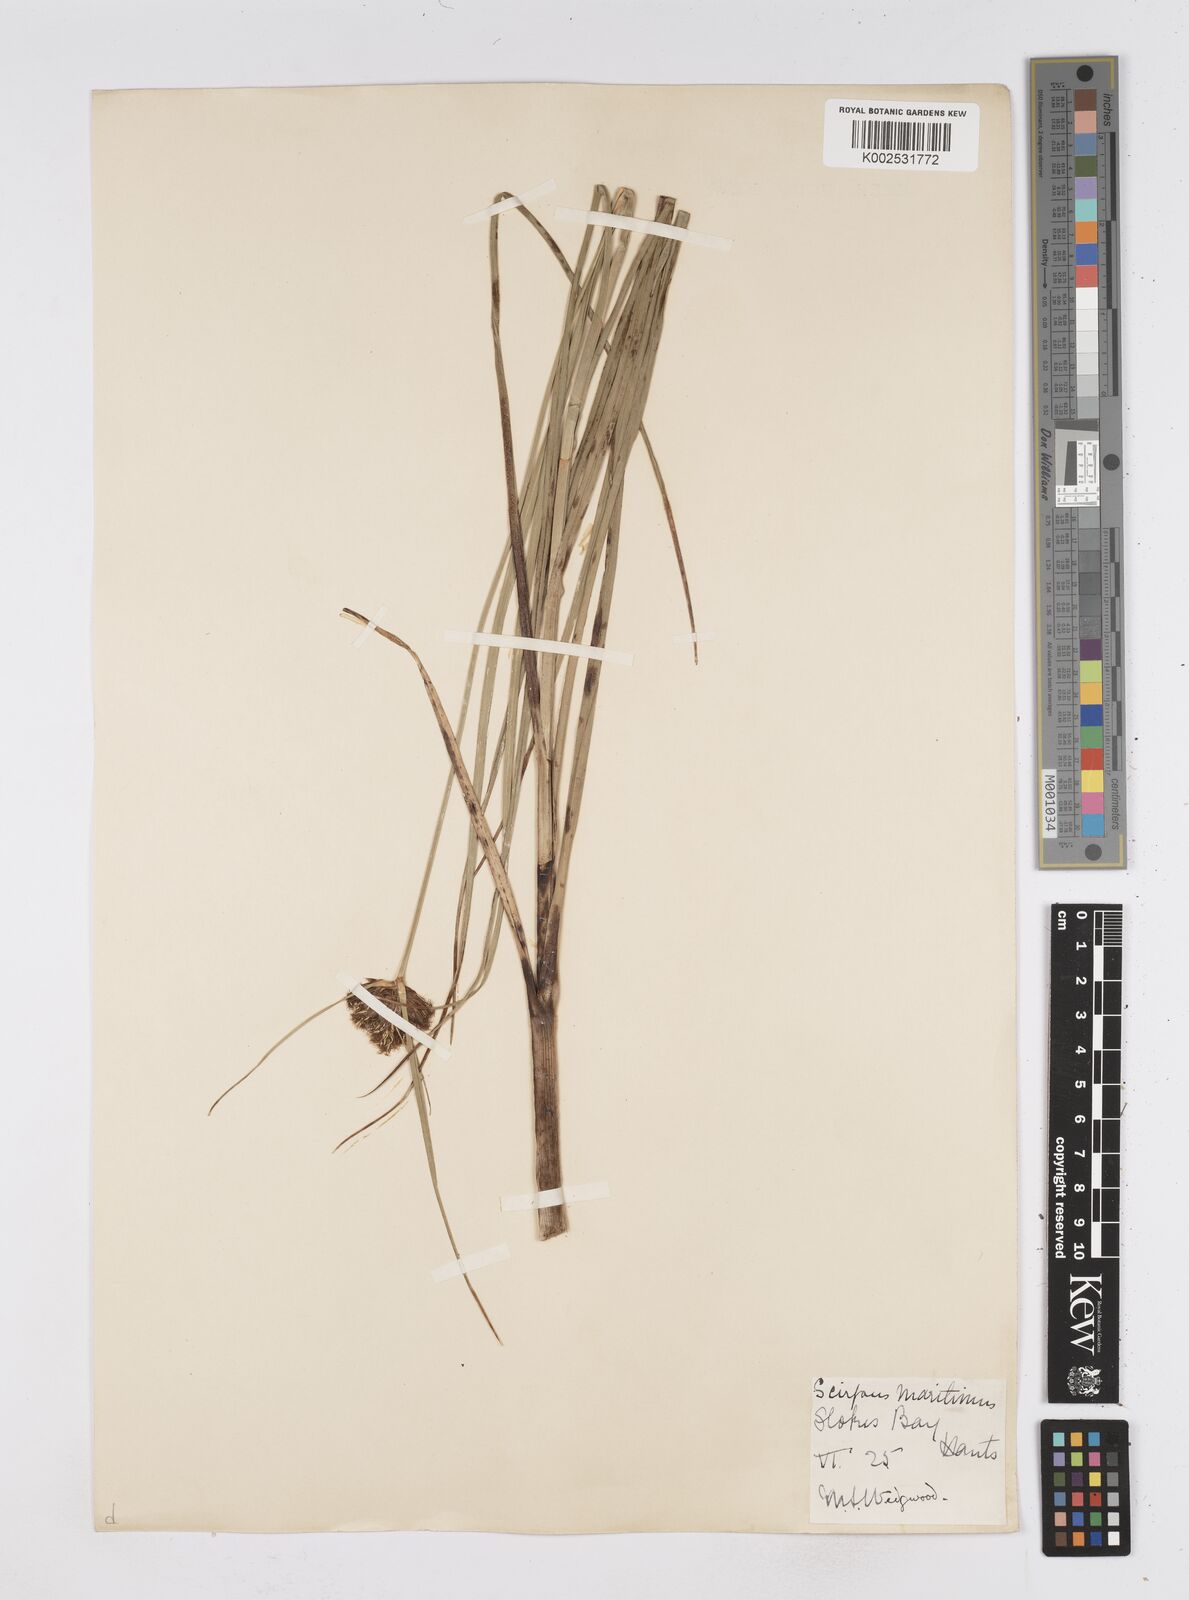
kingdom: Plantae
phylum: Tracheophyta
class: Liliopsida
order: Poales
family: Cyperaceae
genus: Bolboschoenus
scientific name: Bolboschoenus maritimus
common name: Sea club-rush
